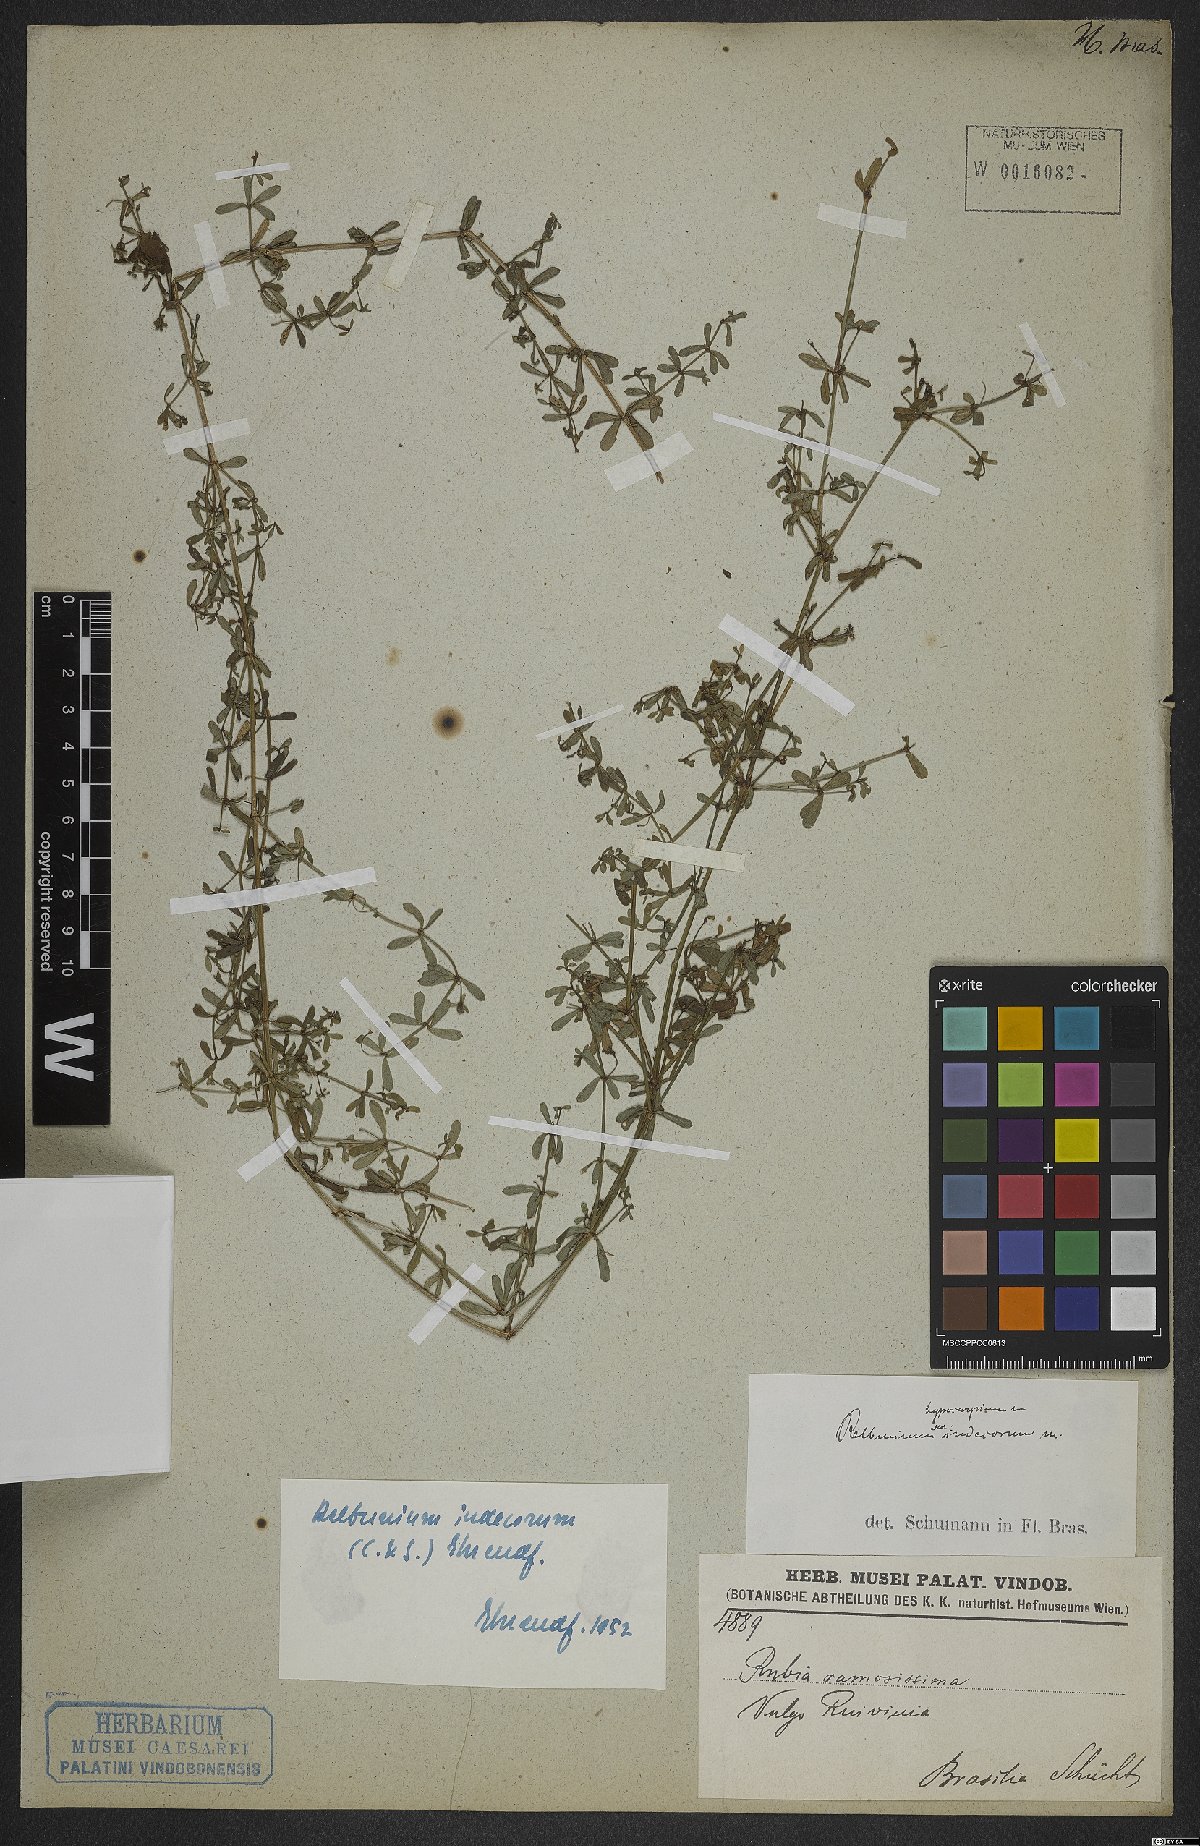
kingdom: Plantae
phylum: Tracheophyta
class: Magnoliopsida
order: Gentianales
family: Rubiaceae
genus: Galium
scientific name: Galium hypocarpium
